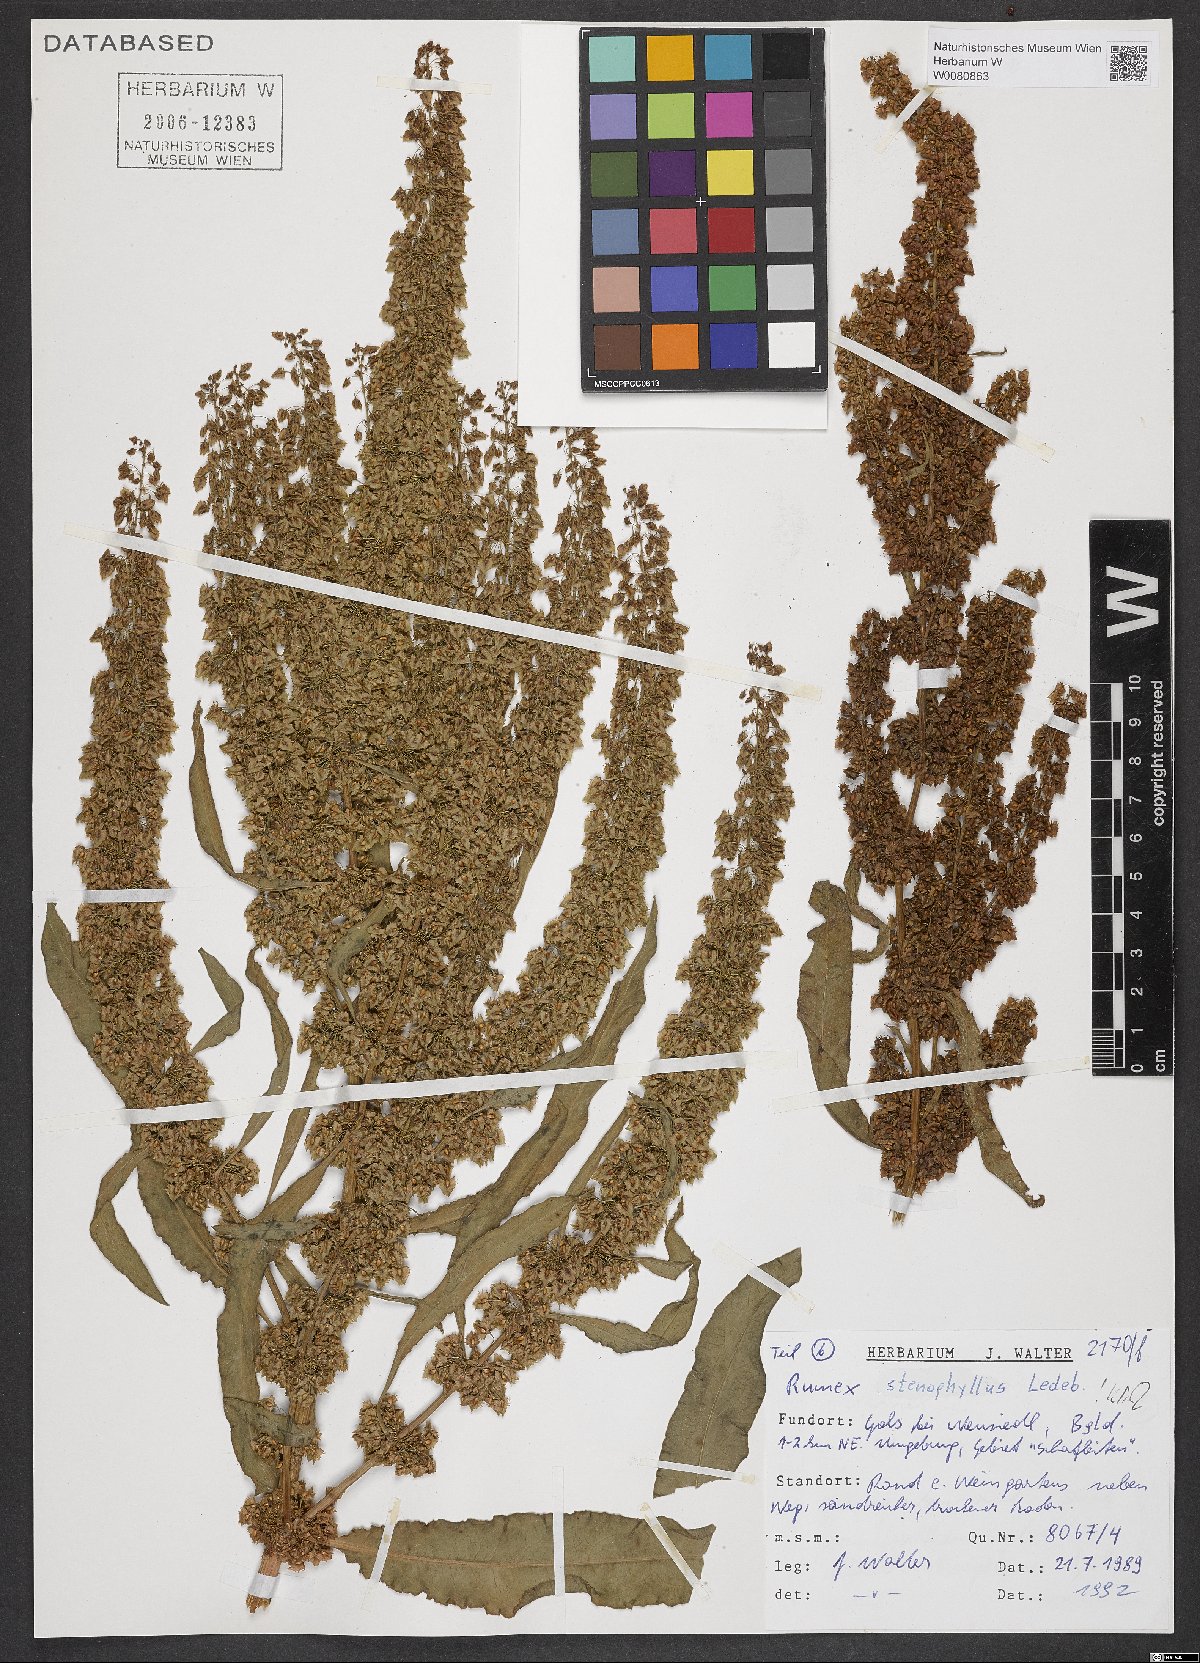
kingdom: Plantae
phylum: Tracheophyta
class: Magnoliopsida
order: Caryophyllales
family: Polygonaceae
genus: Rumex
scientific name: Rumex stenophyllus
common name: Narrowleaf dock
